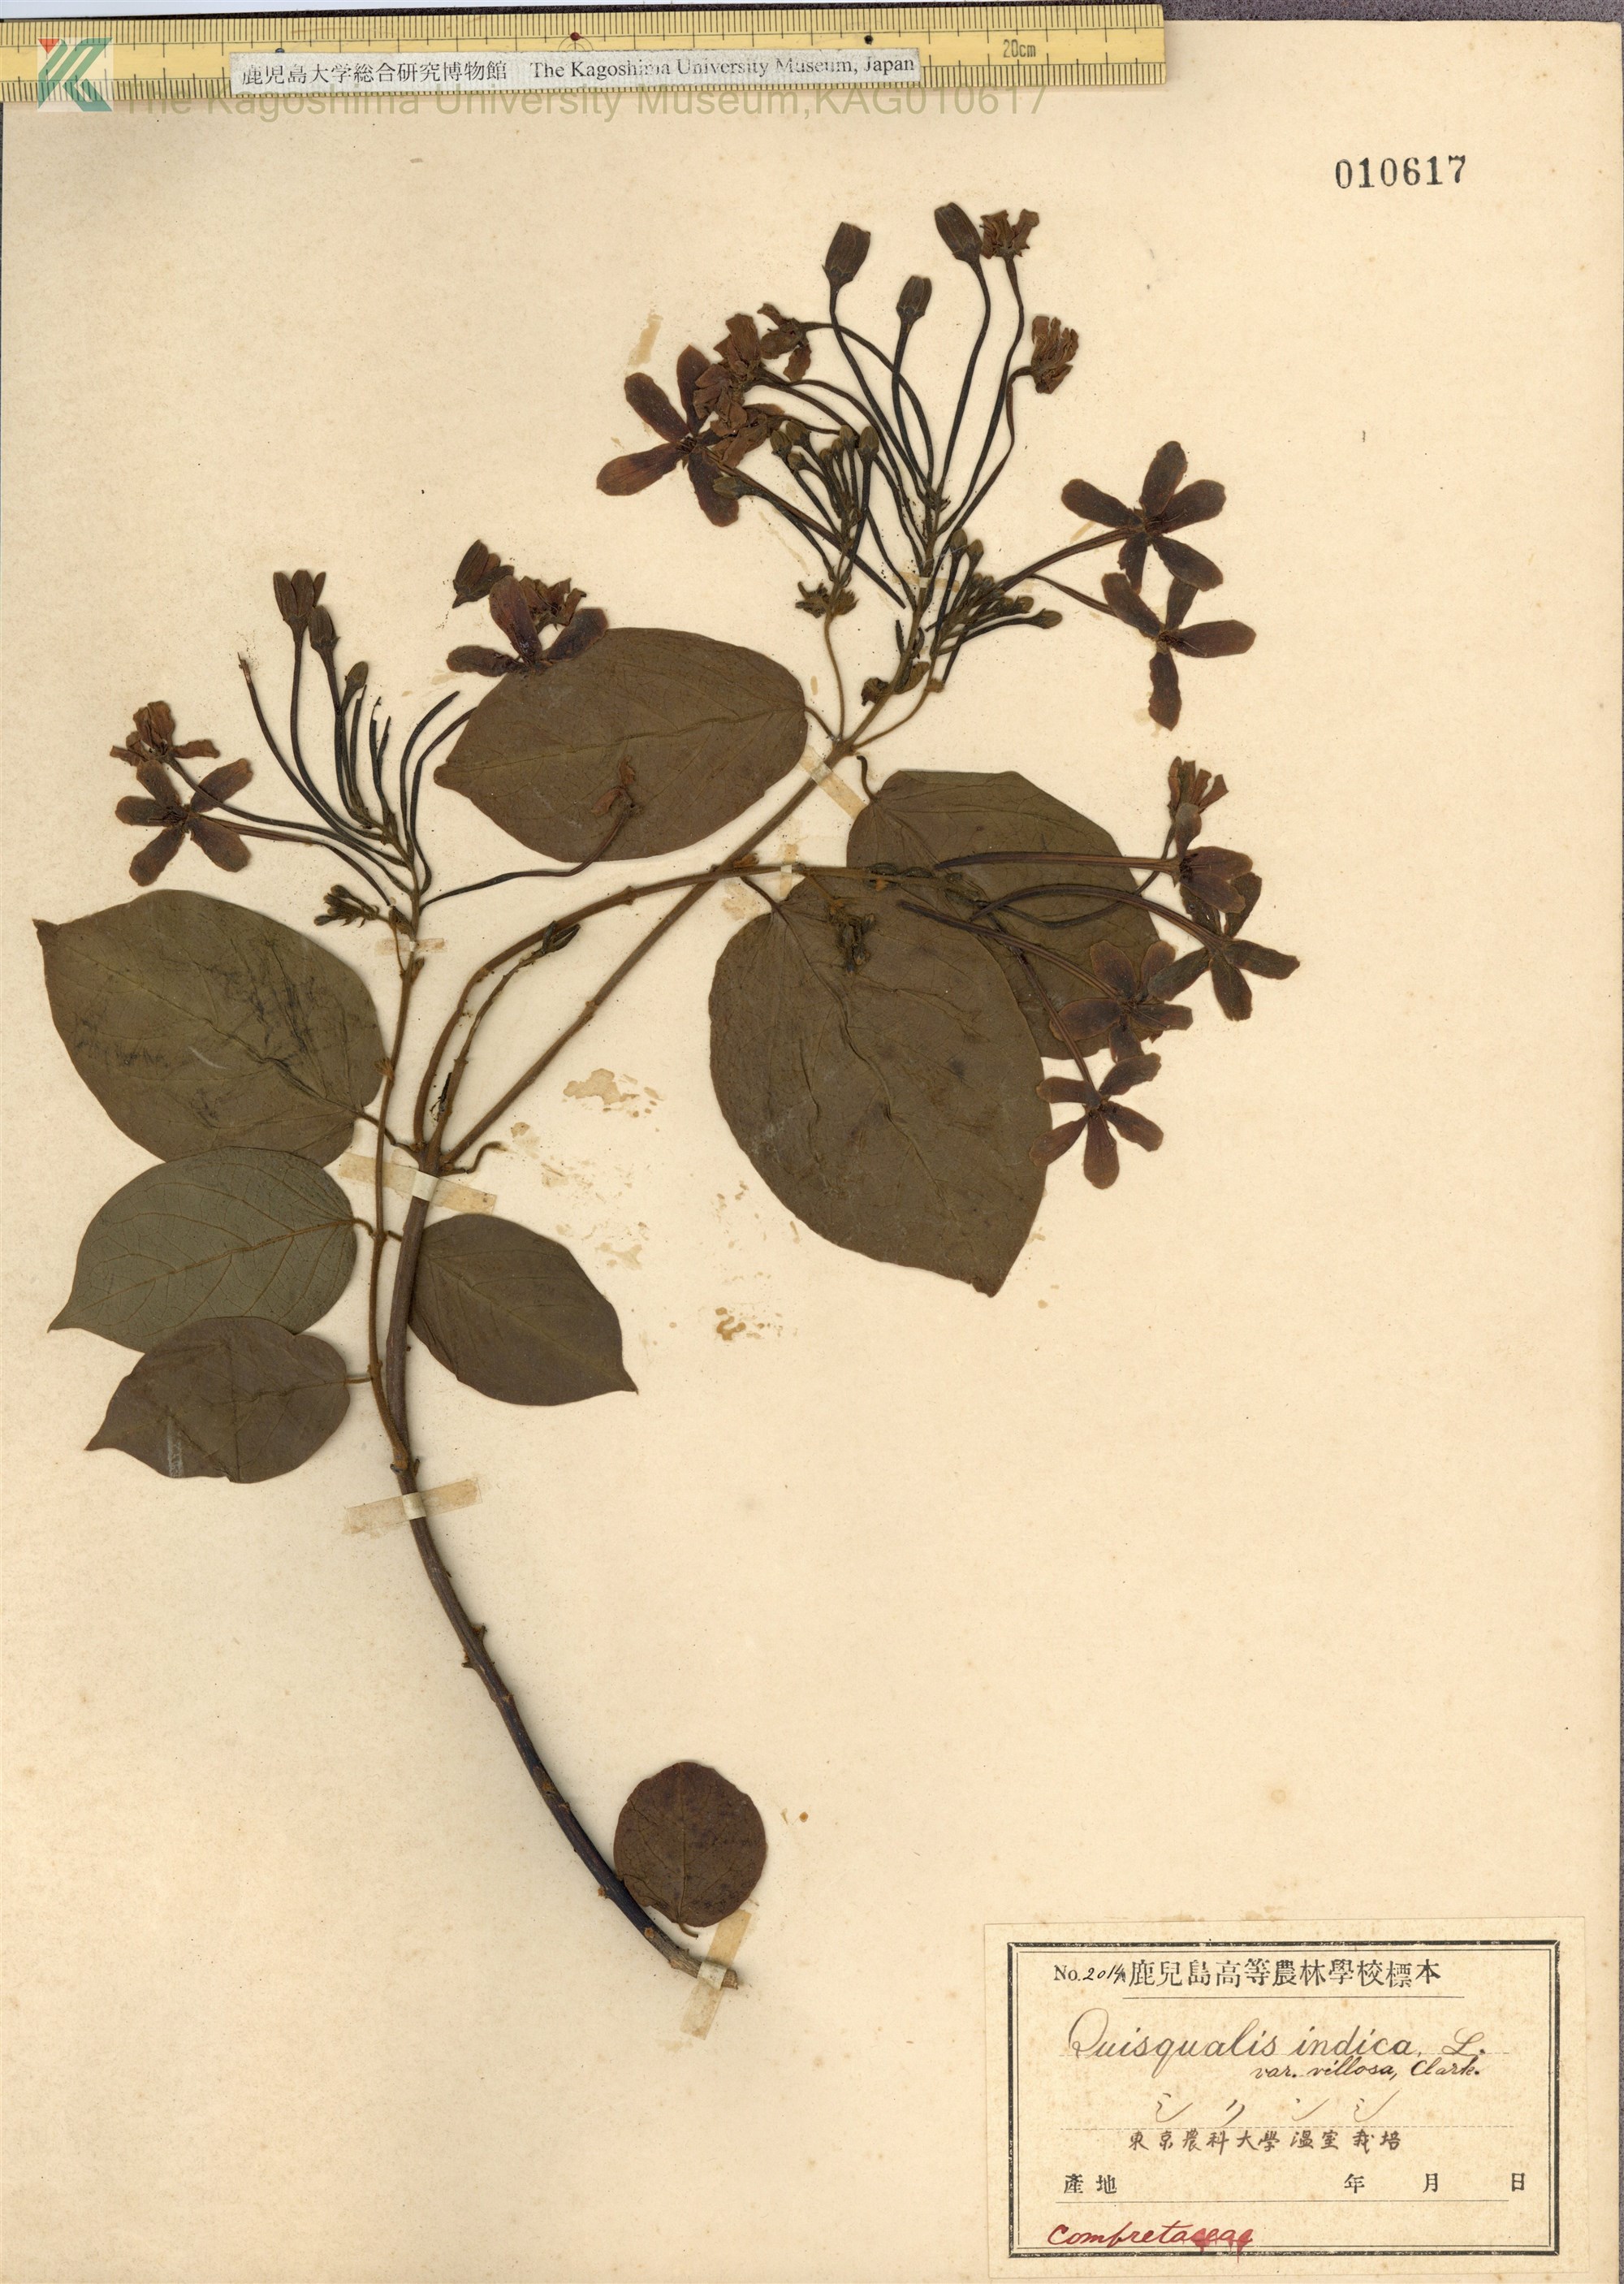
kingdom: Plantae
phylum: Tracheophyta
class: Magnoliopsida
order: Myrtales
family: Combretaceae
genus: Combretum
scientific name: Combretum indicum
